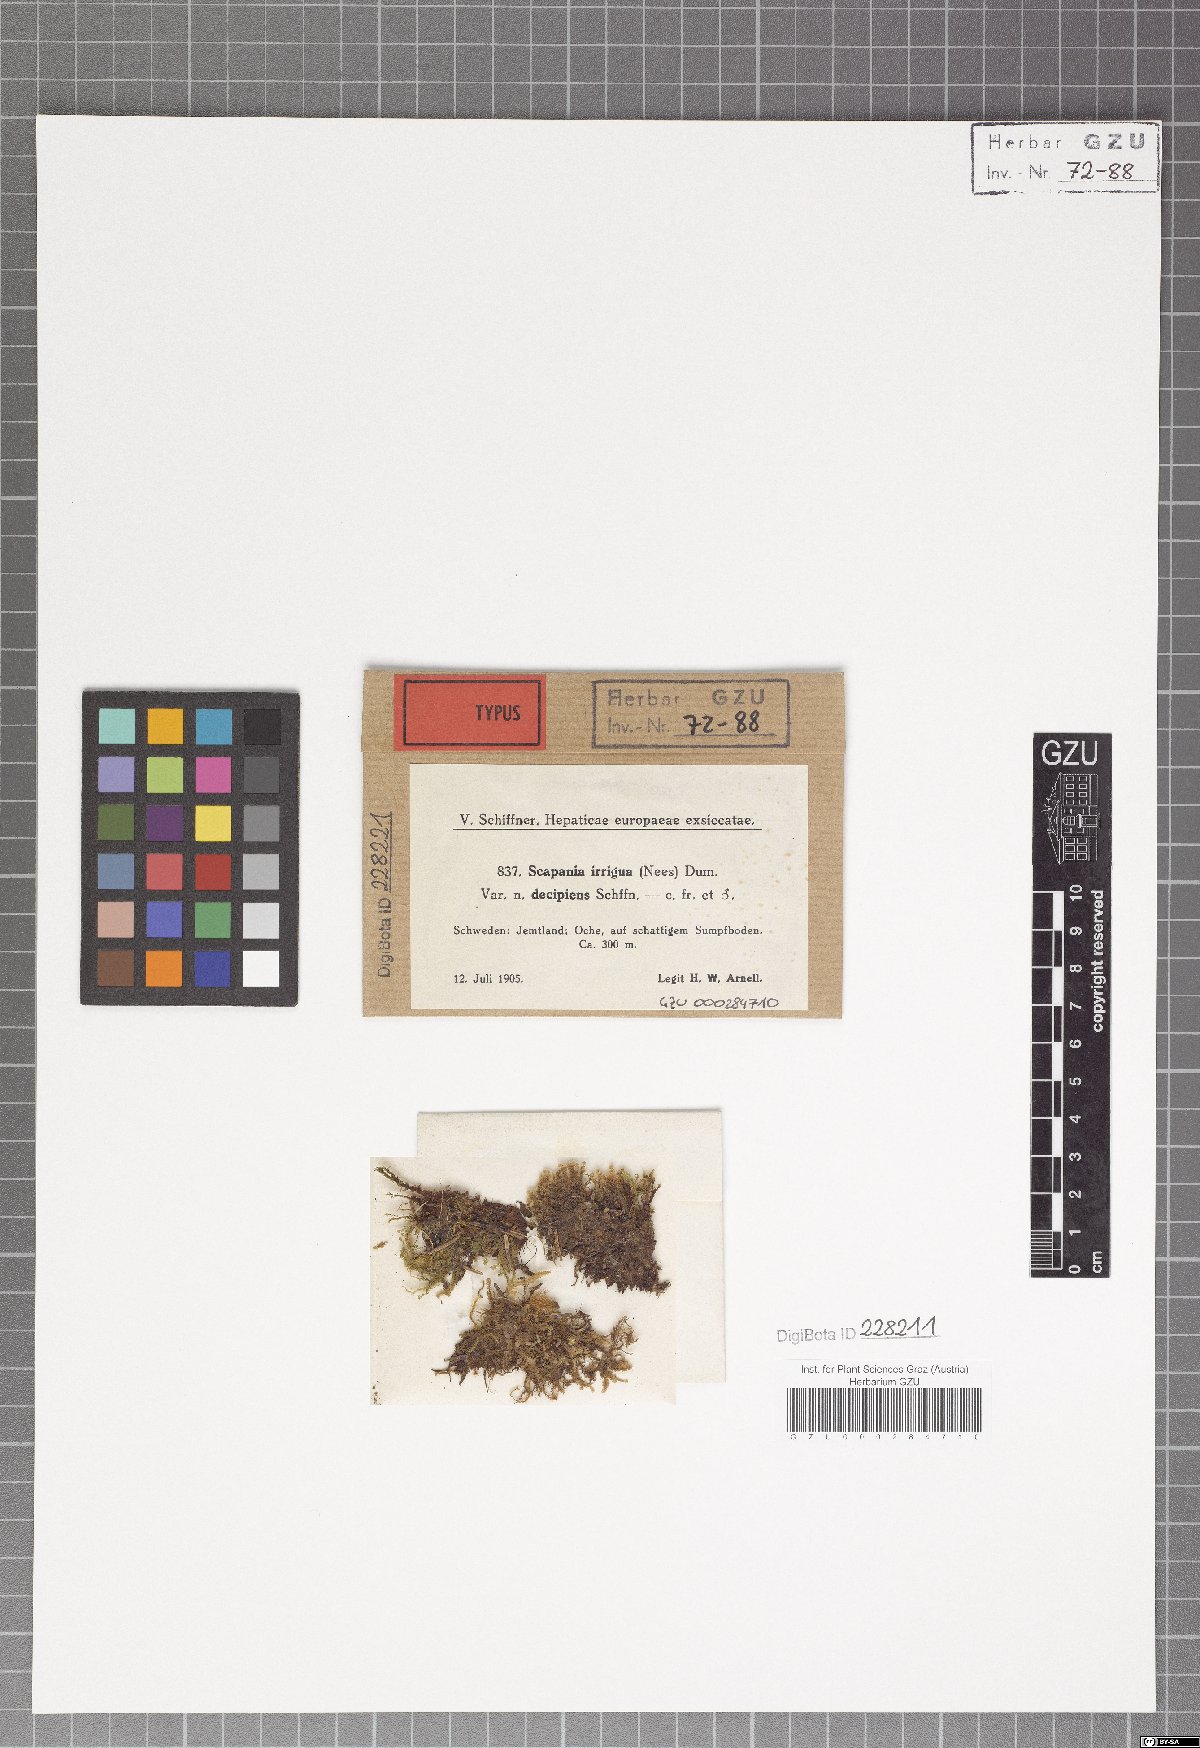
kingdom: Plantae
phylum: Marchantiophyta
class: Jungermanniopsida
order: Jungermanniales
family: Scapaniaceae
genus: Scapania
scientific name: Scapania irrigua
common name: Heath earwort
